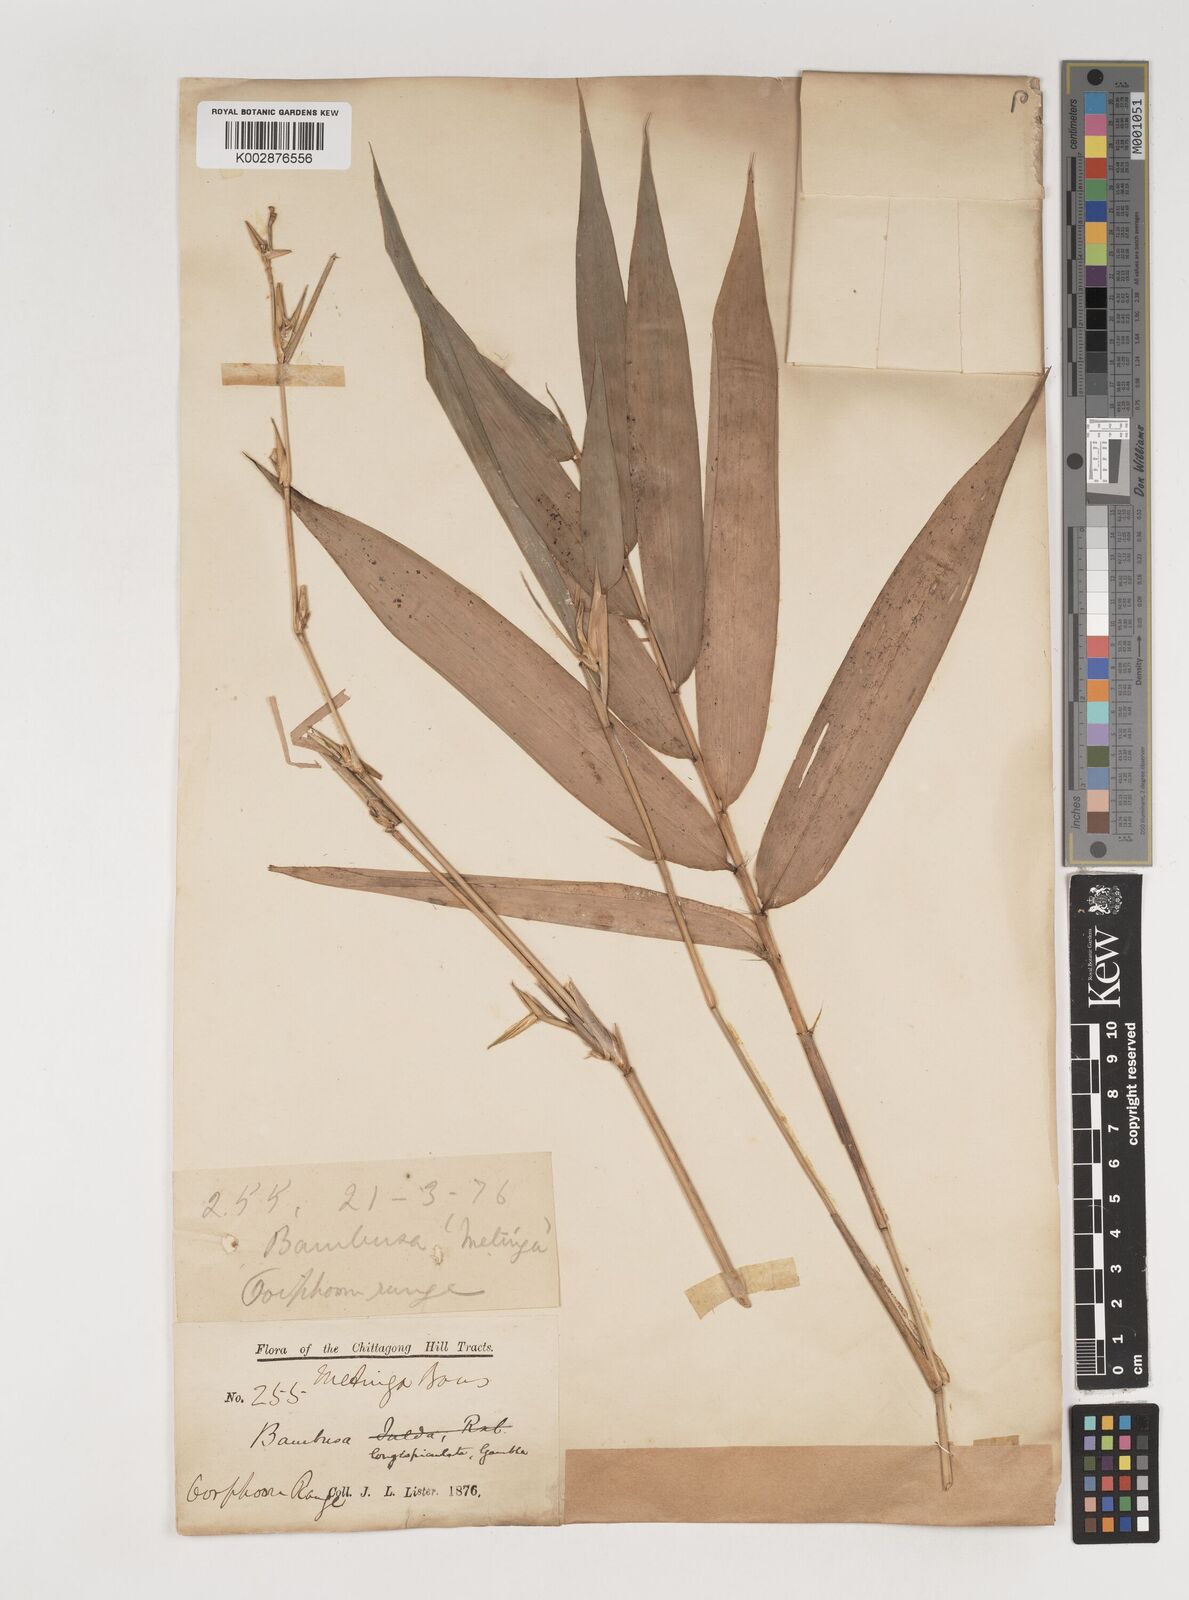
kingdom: Plantae
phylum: Tracheophyta
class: Liliopsida
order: Poales
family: Poaceae
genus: Bambusa
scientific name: Bambusa longispiculata
